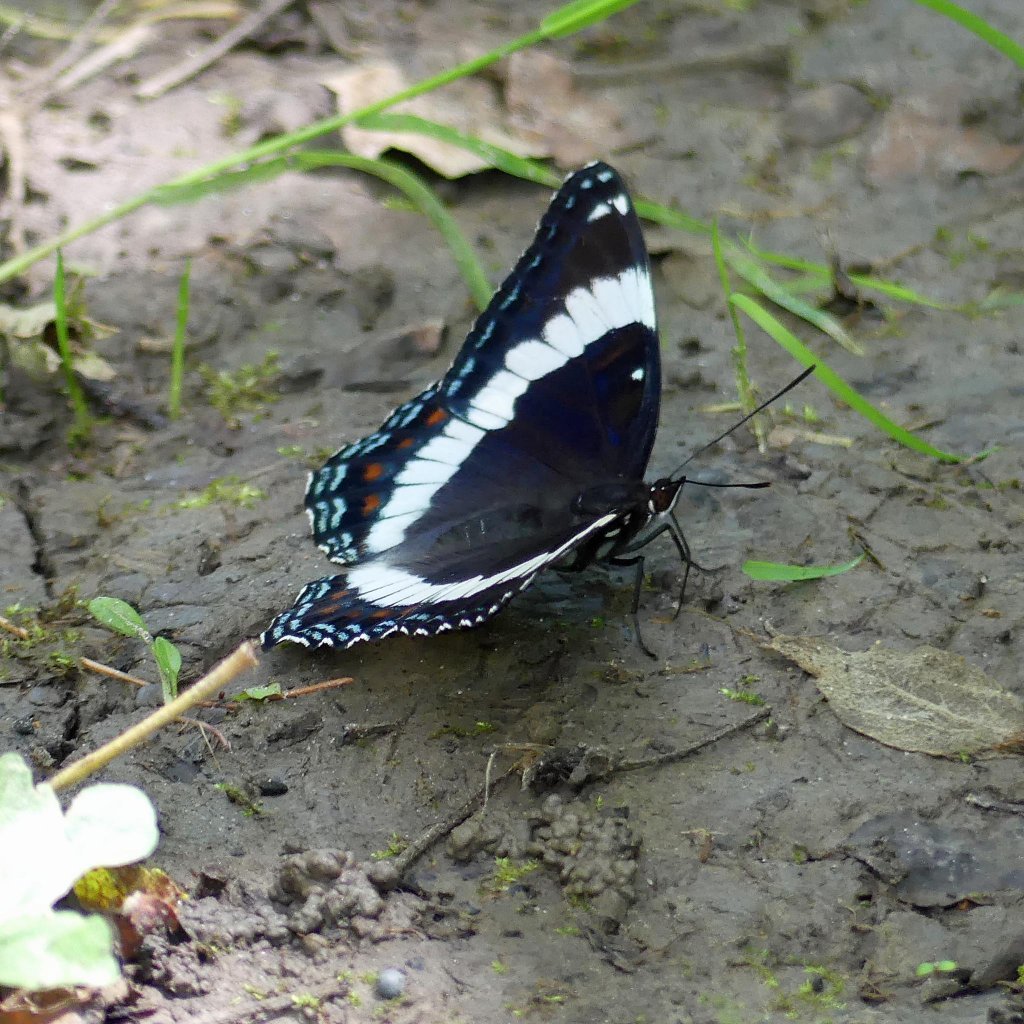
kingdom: Animalia
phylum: Arthropoda
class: Insecta
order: Lepidoptera
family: Nymphalidae
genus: Limenitis
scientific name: Limenitis arthemis
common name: Red-spotted Admiral
